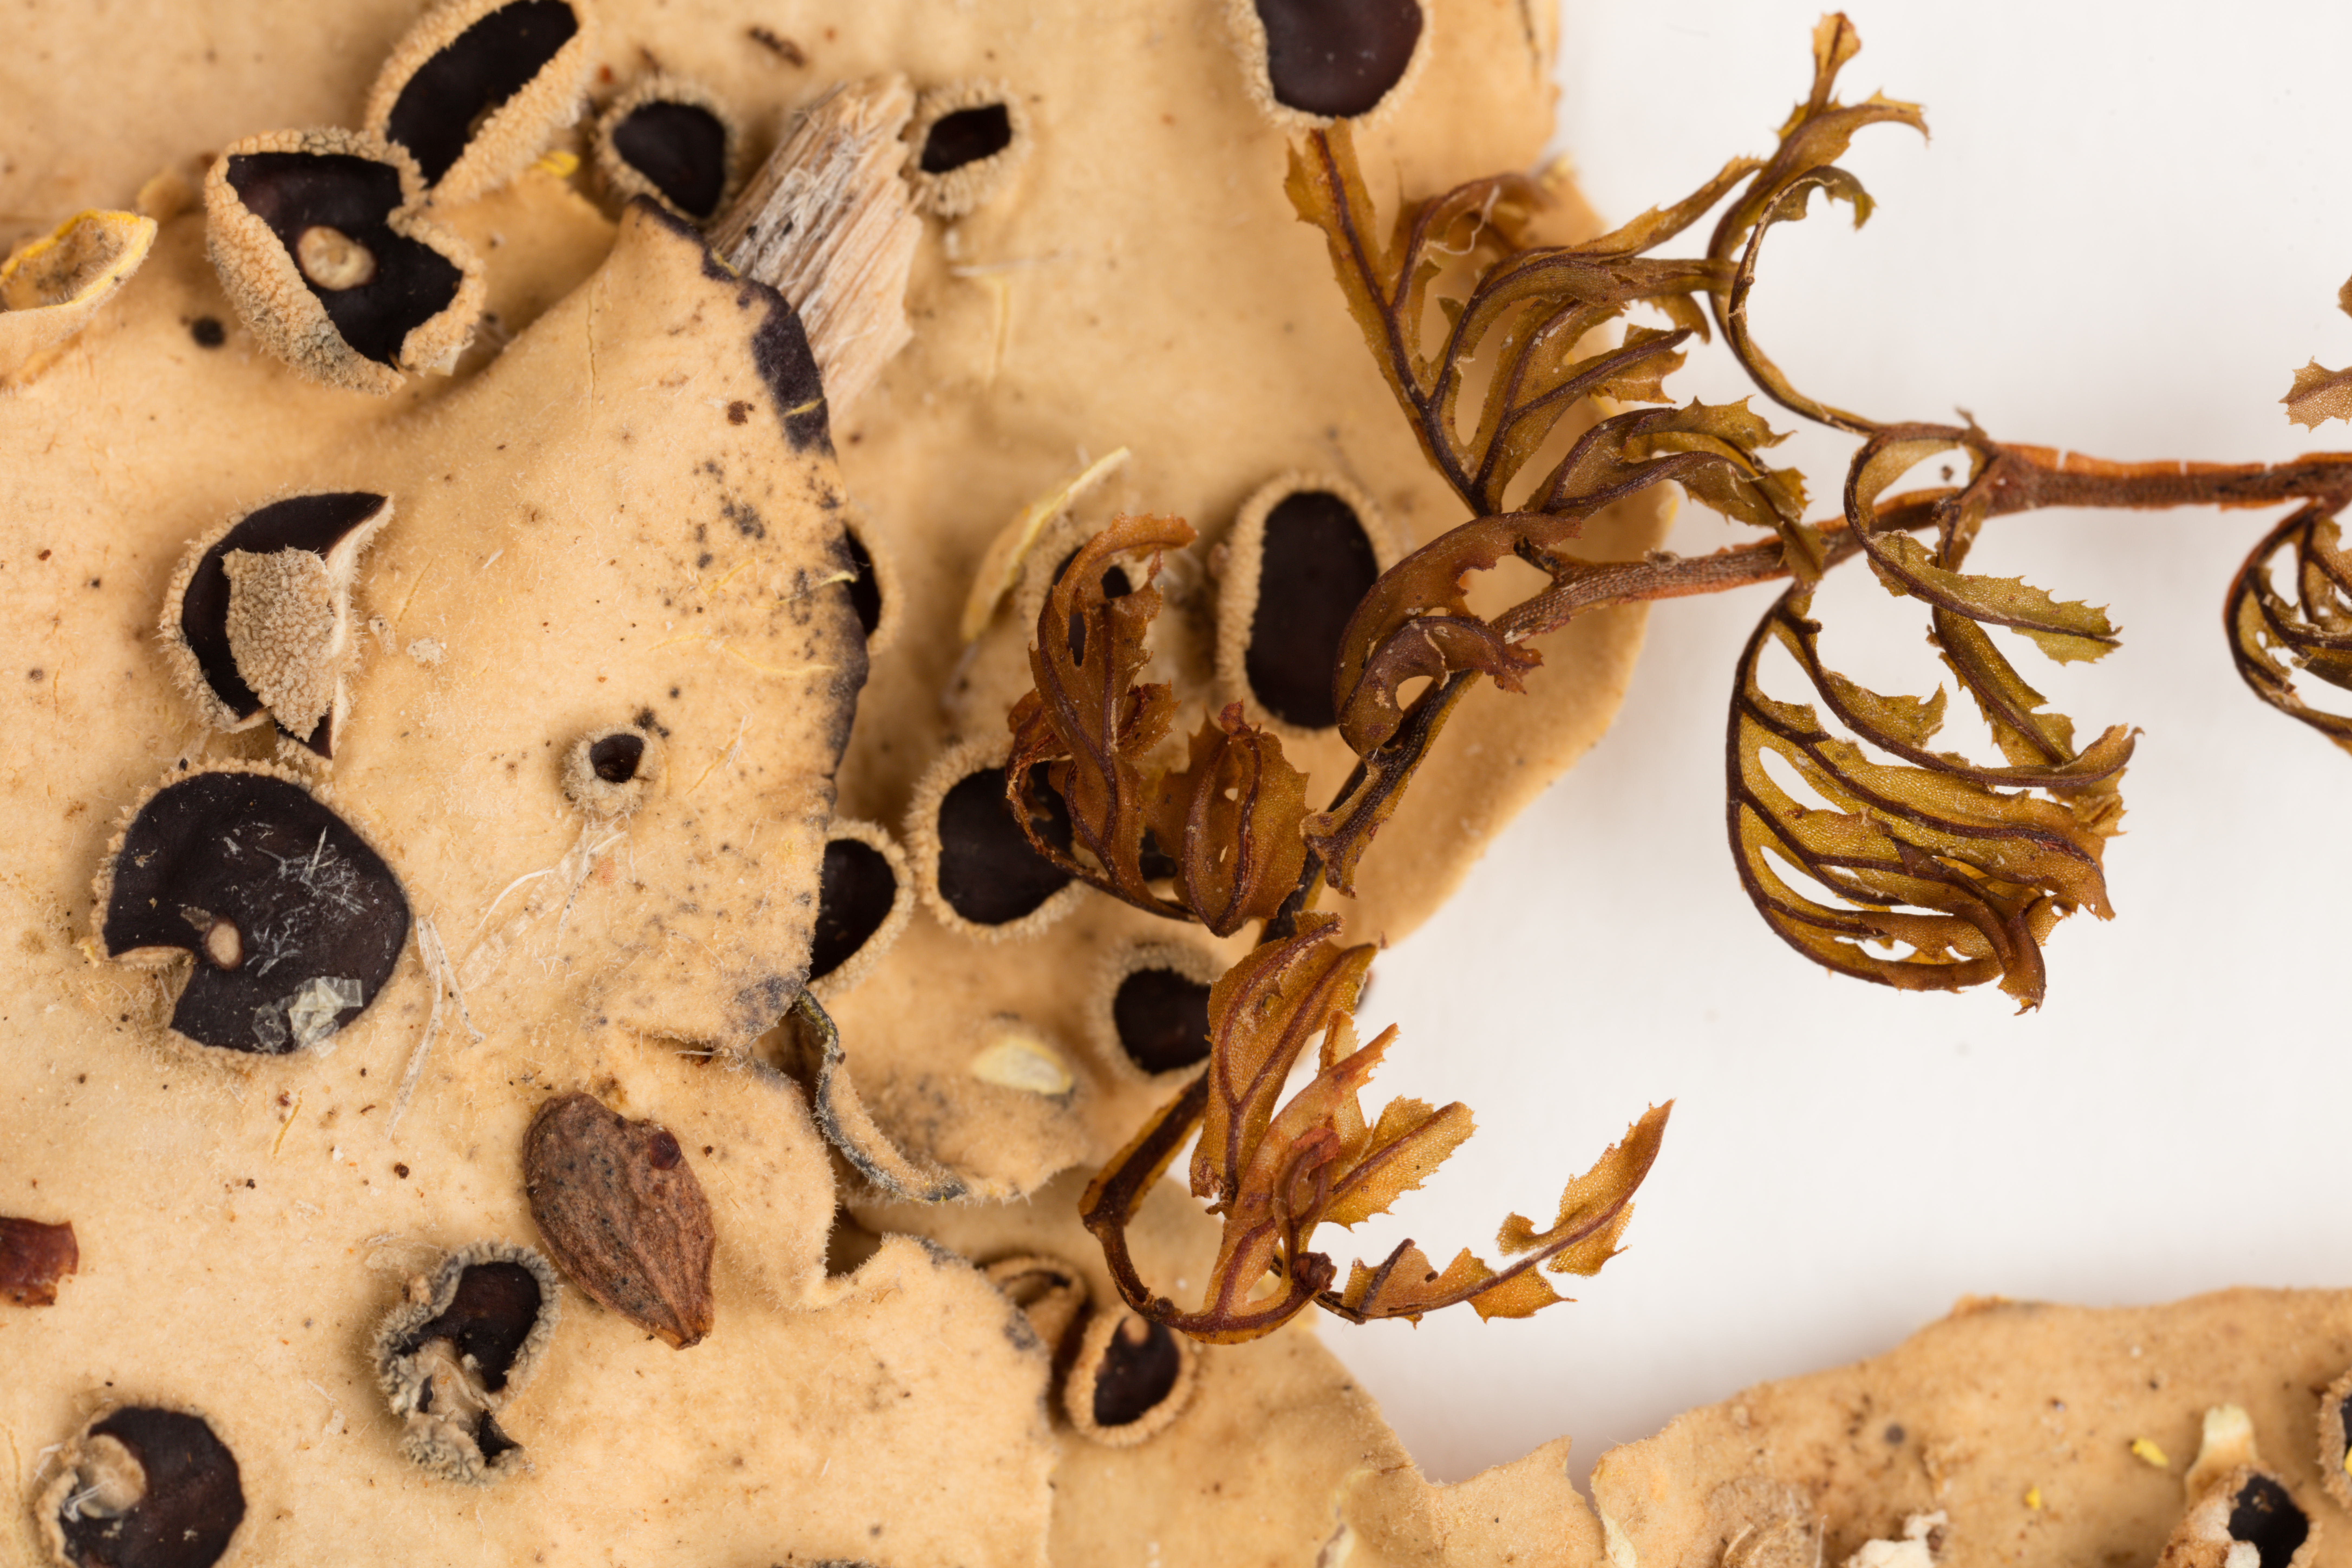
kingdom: Fungi
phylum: Ascomycota
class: Lecanoromycetes
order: Peltigerales
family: Lobariaceae
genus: Podostictina
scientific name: Podostictina endochrysa
